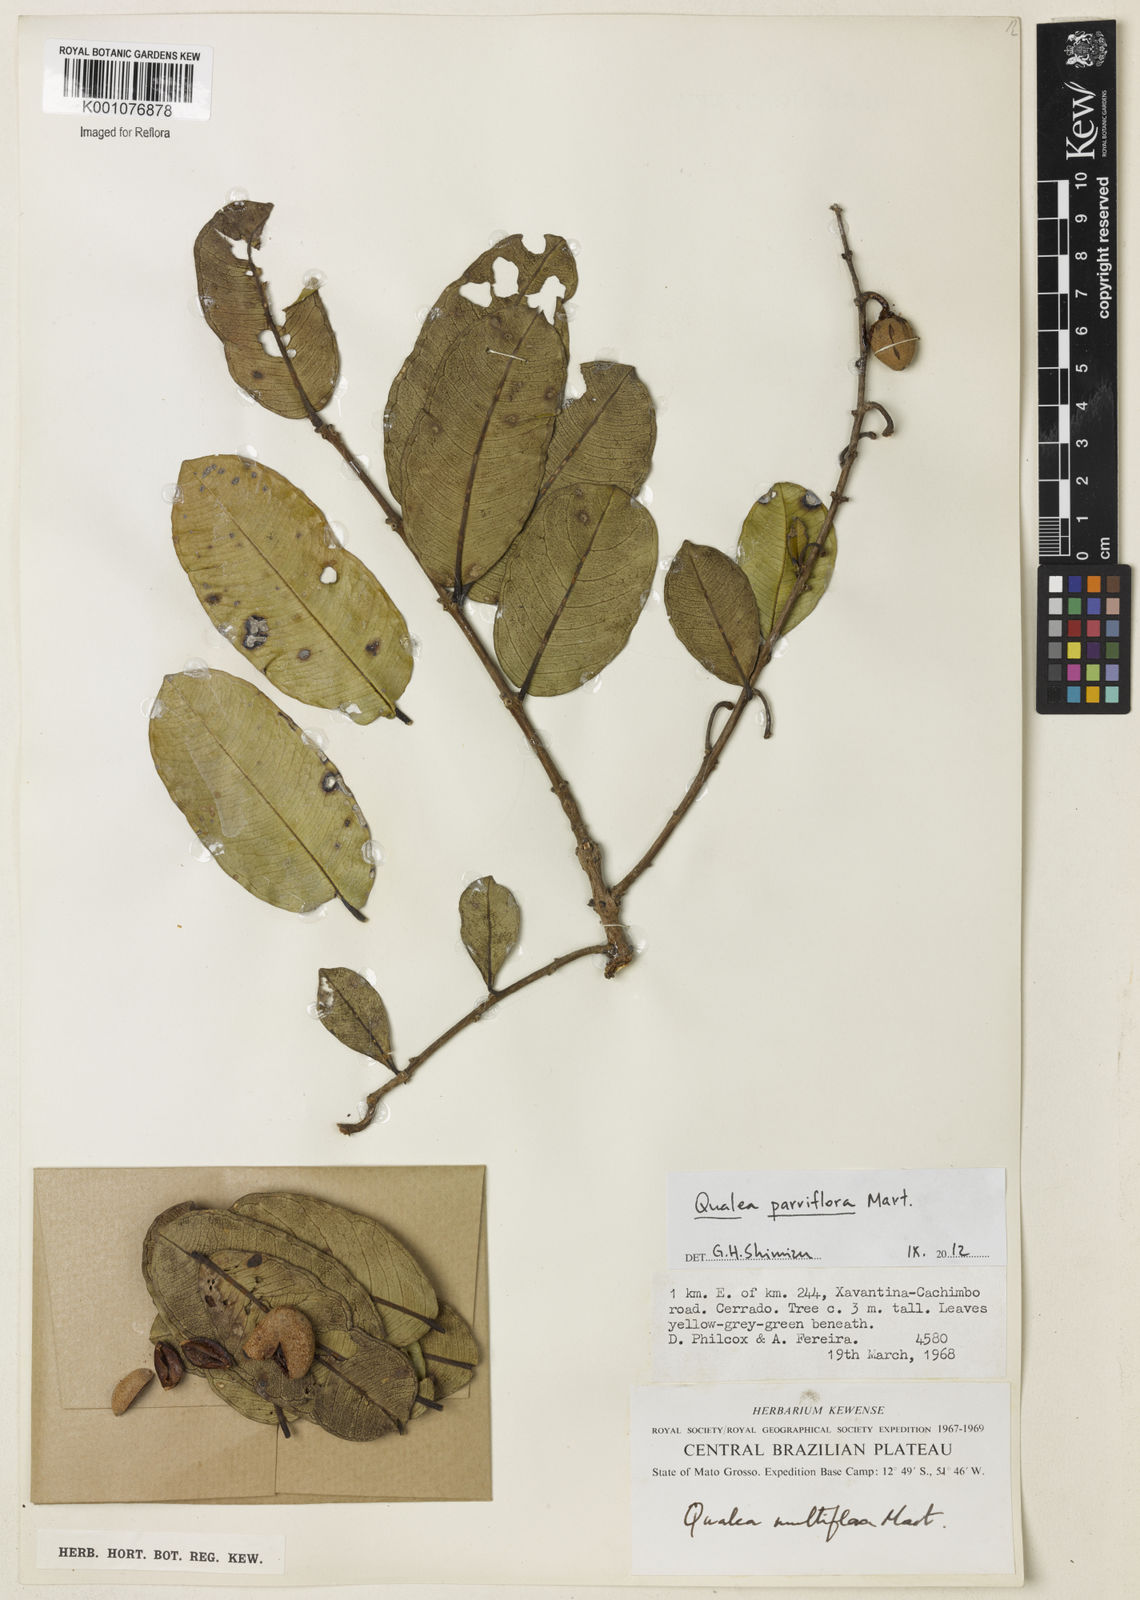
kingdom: Plantae
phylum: Tracheophyta
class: Magnoliopsida
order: Myrtales
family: Vochysiaceae
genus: Qualea
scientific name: Qualea parviflora
